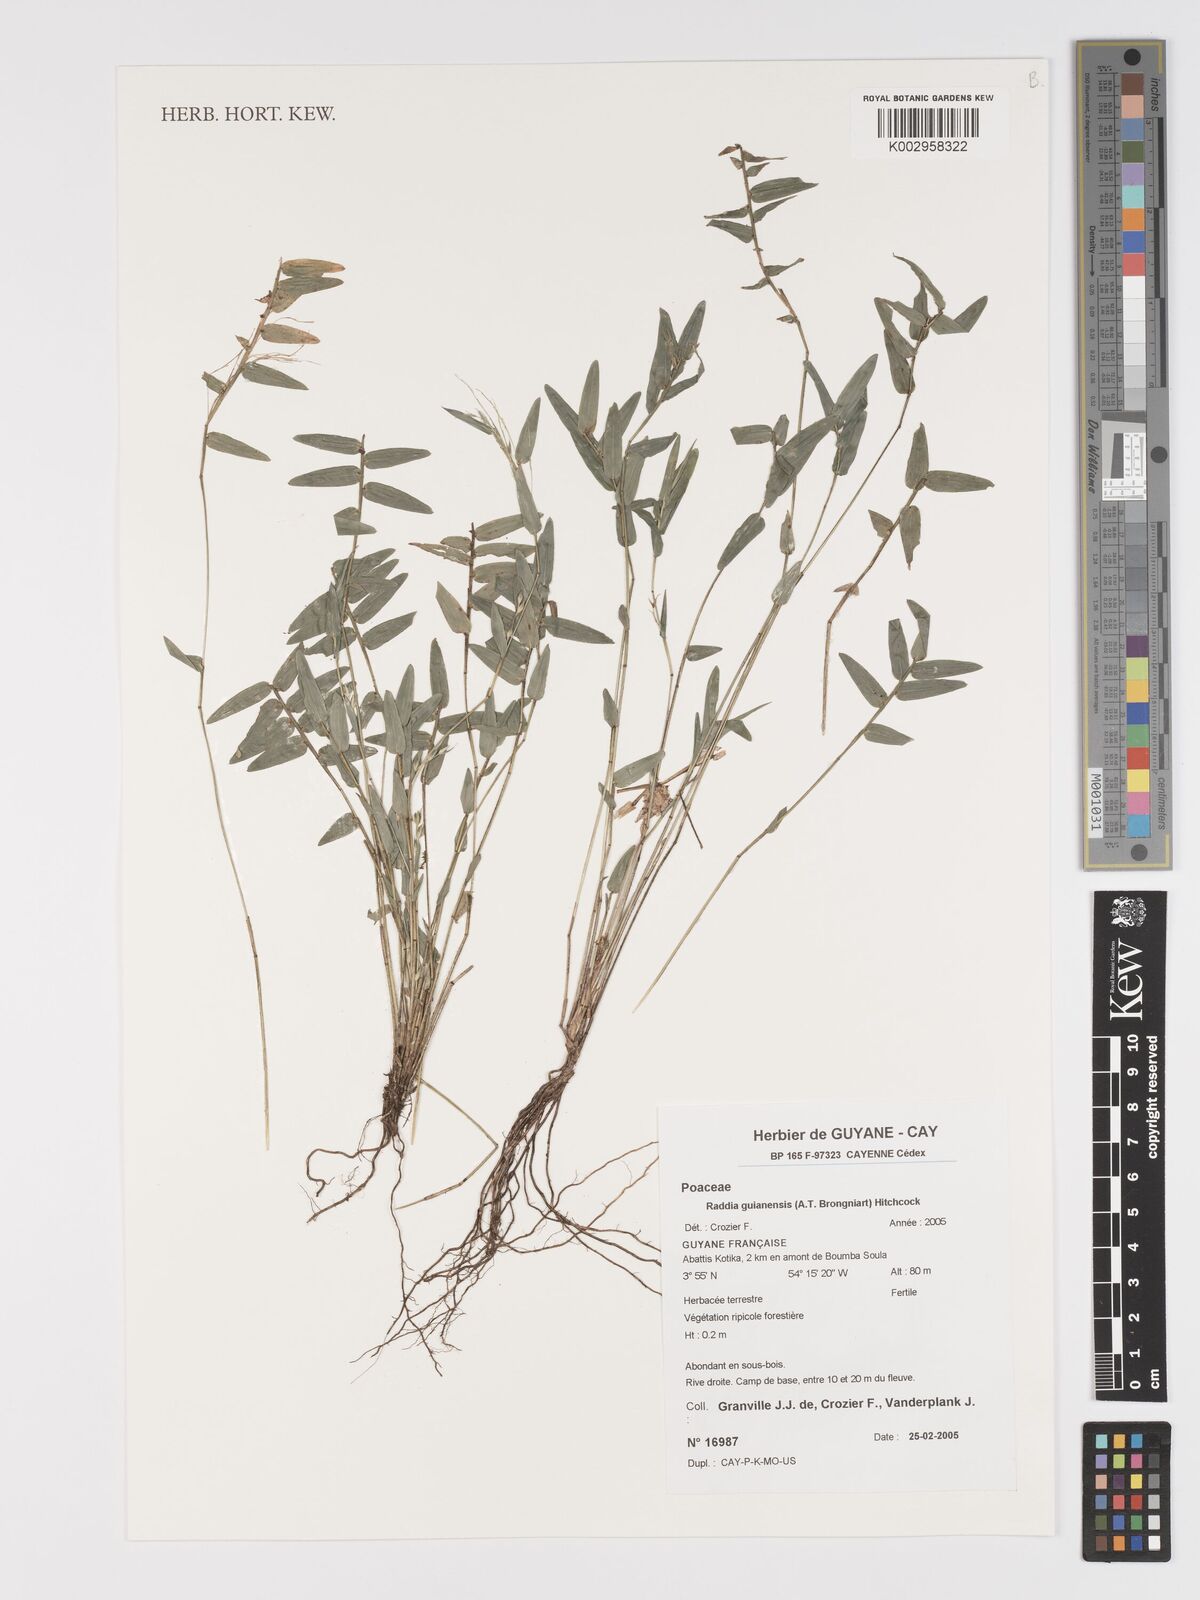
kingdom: Plantae
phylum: Tracheophyta
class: Liliopsida
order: Poales
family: Poaceae
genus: Raddia
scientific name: Raddia guianensis
